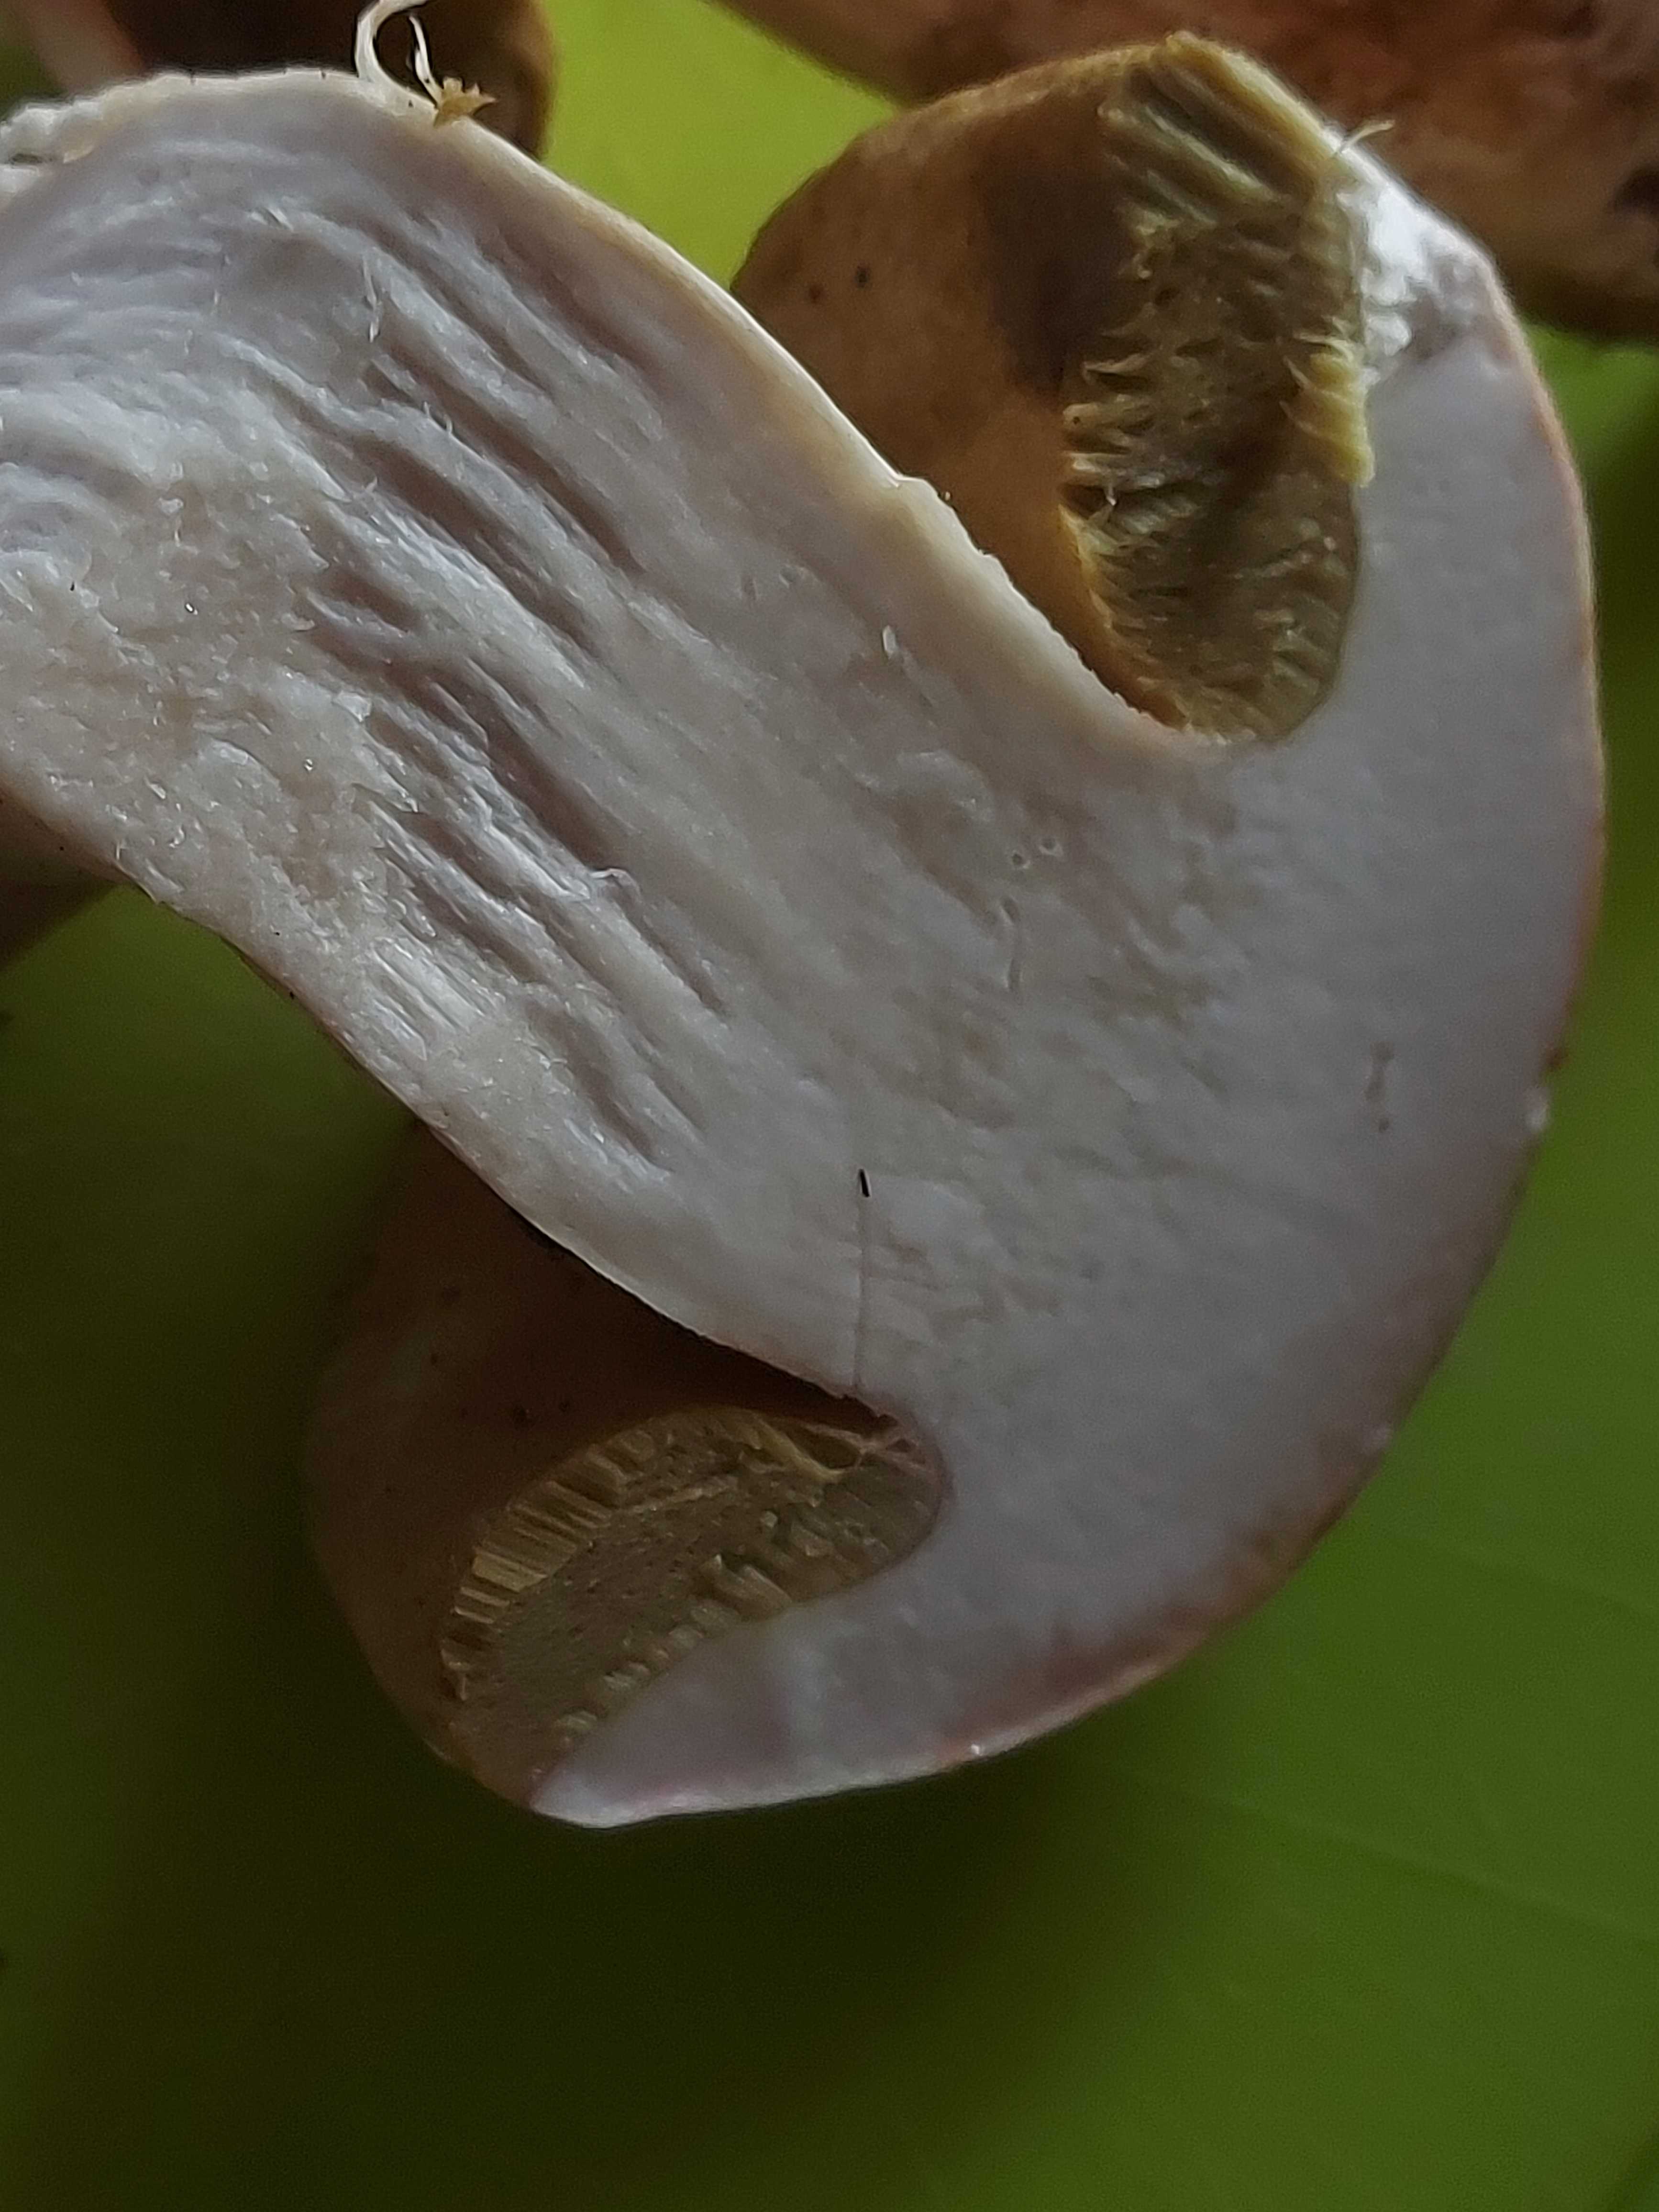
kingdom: Fungi
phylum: Basidiomycota
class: Agaricomycetes
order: Boletales
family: Boletaceae
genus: Boletus
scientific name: Boletus
